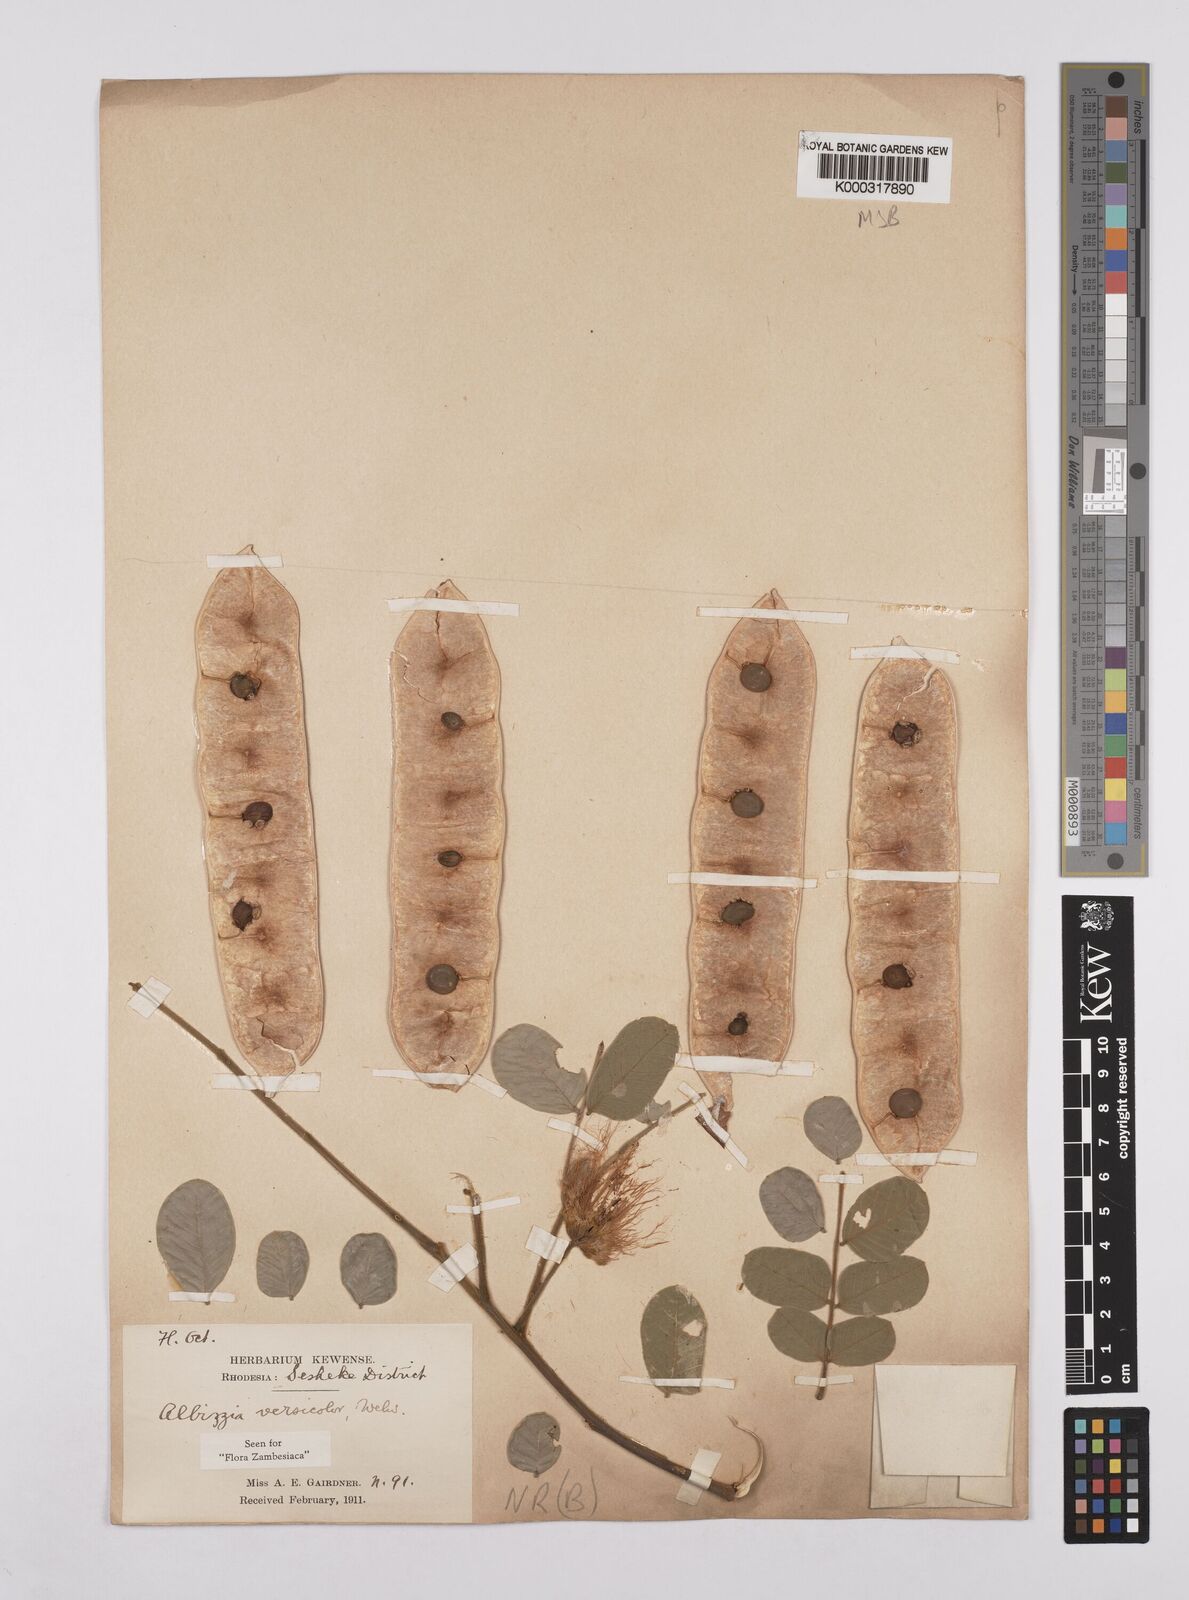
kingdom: Plantae
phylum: Tracheophyta
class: Magnoliopsida
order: Fabales
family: Fabaceae
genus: Albizia
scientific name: Albizia versicolor
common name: Poisonpod
